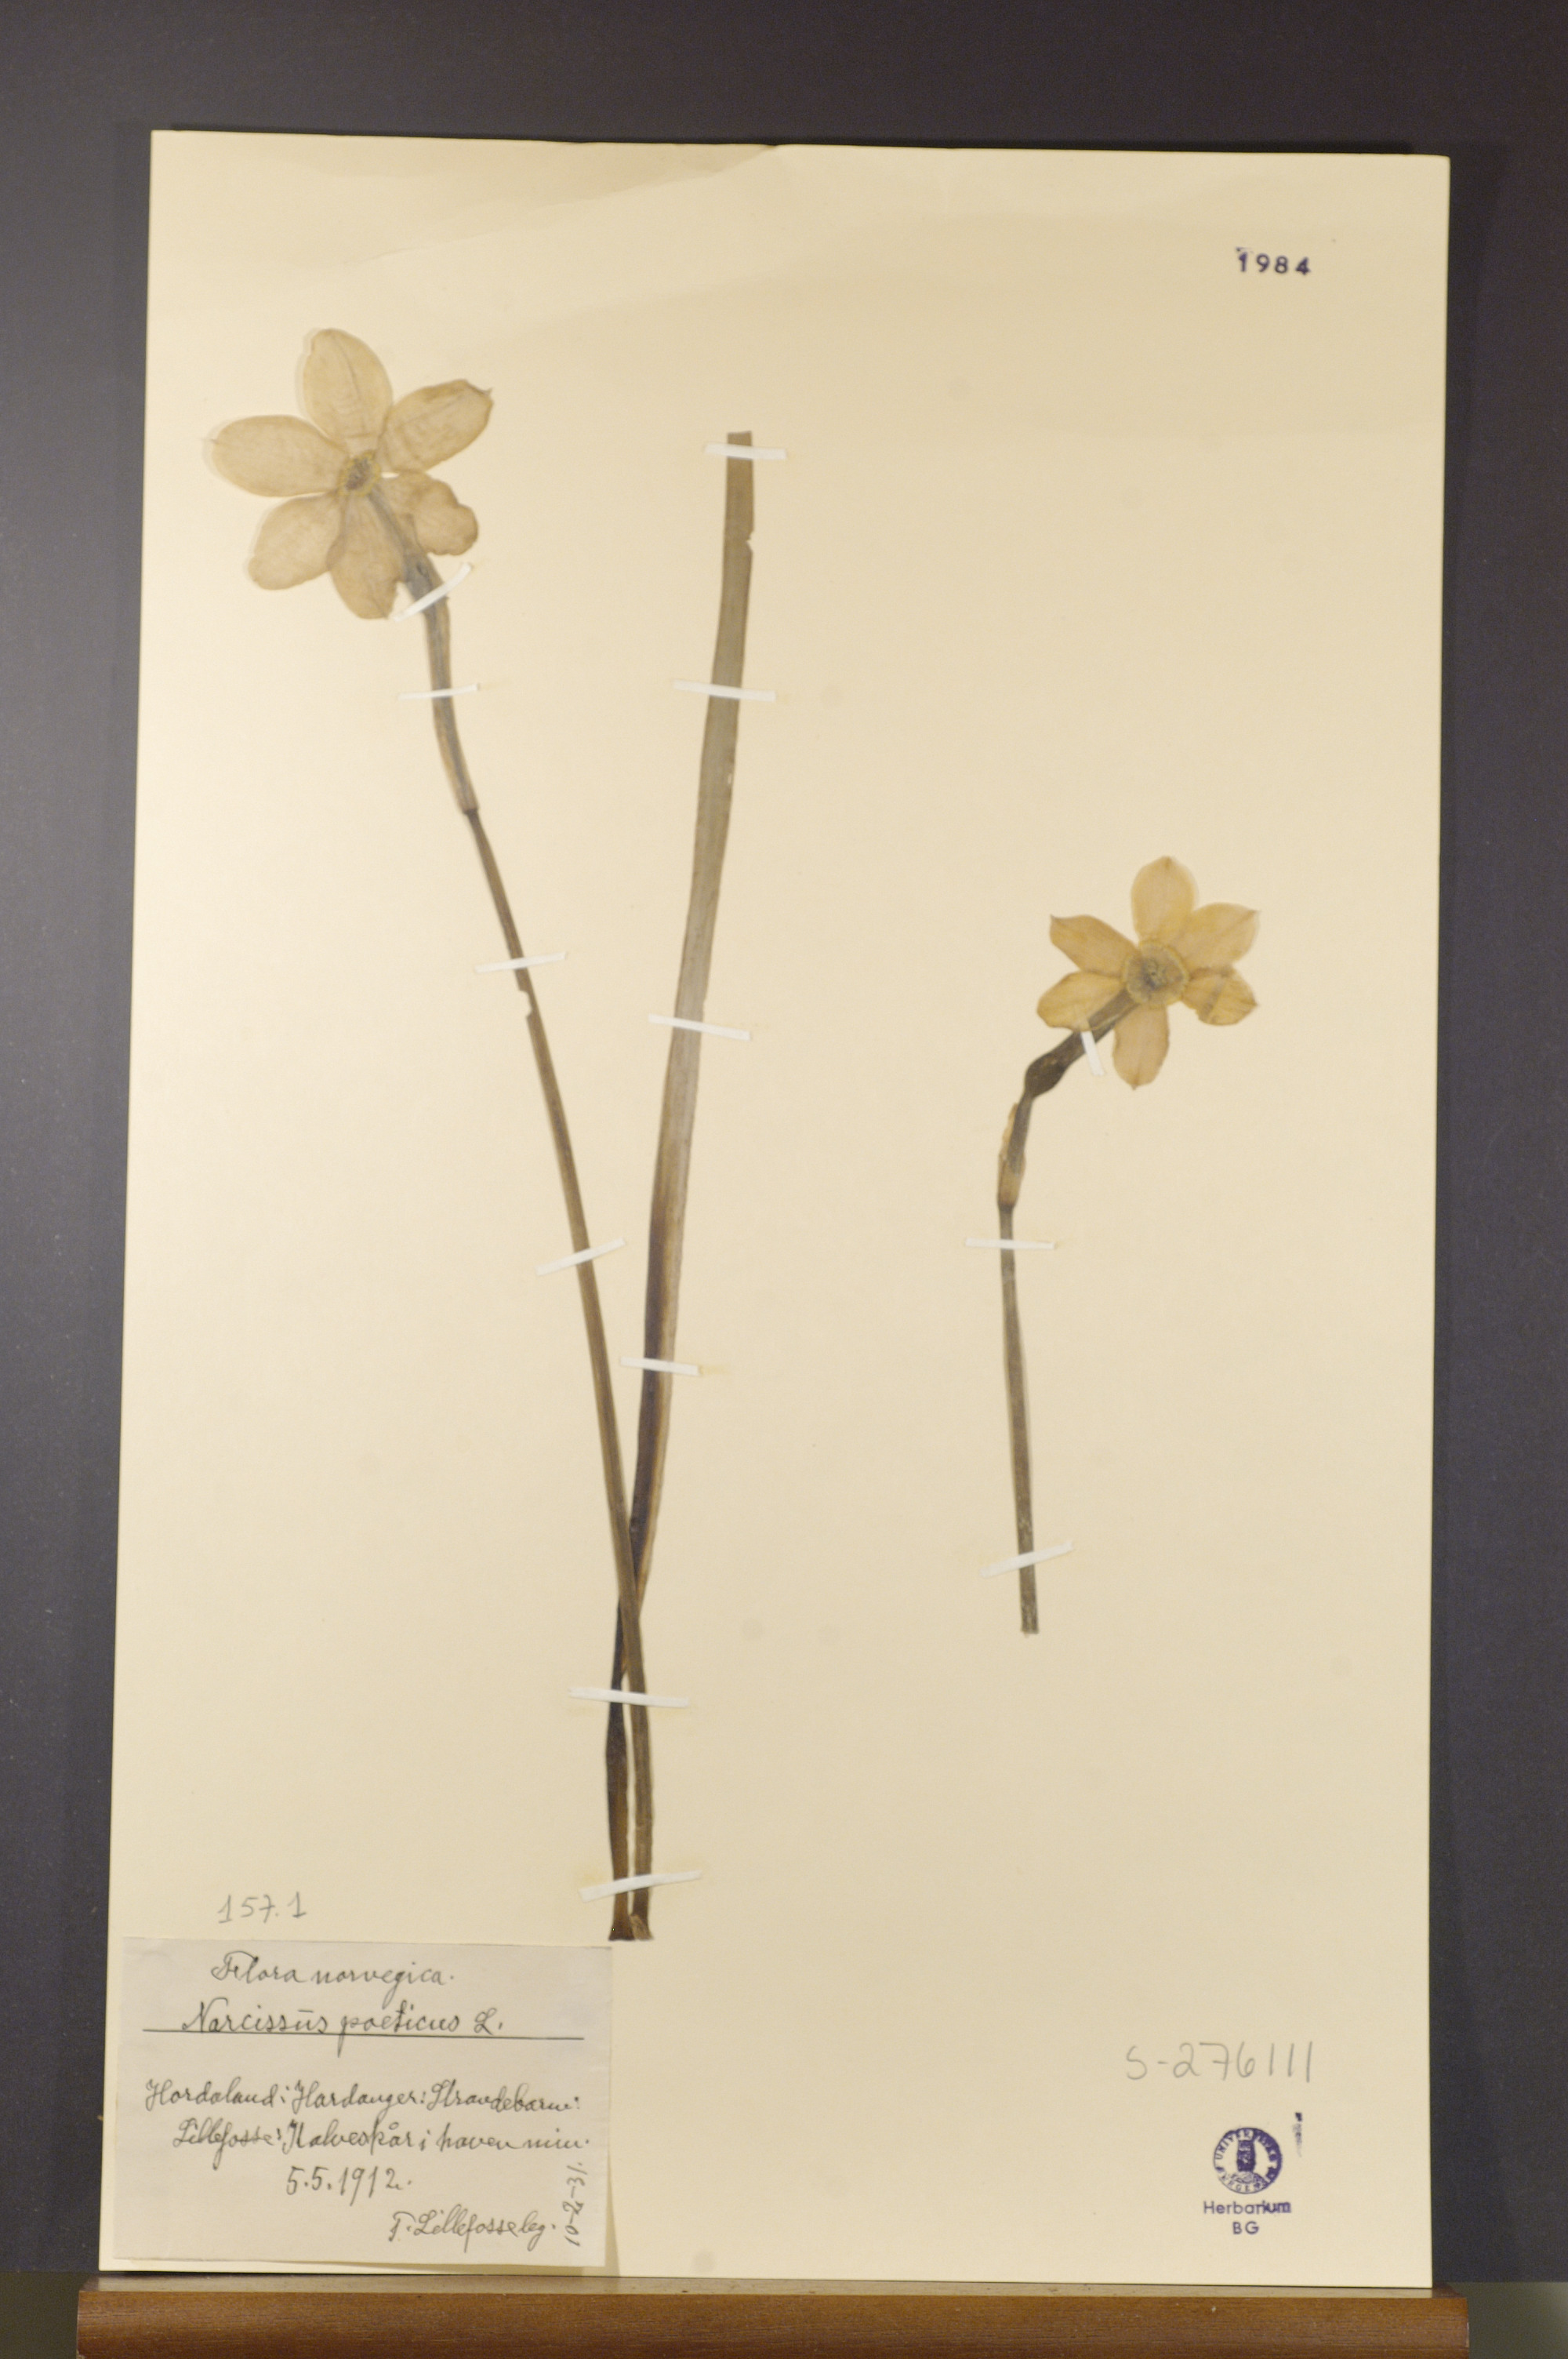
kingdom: Plantae
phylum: Tracheophyta
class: Liliopsida
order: Asparagales
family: Amaryllidaceae
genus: Narcissus
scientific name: Narcissus poeticus
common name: Pheasant's-eye daffodil
